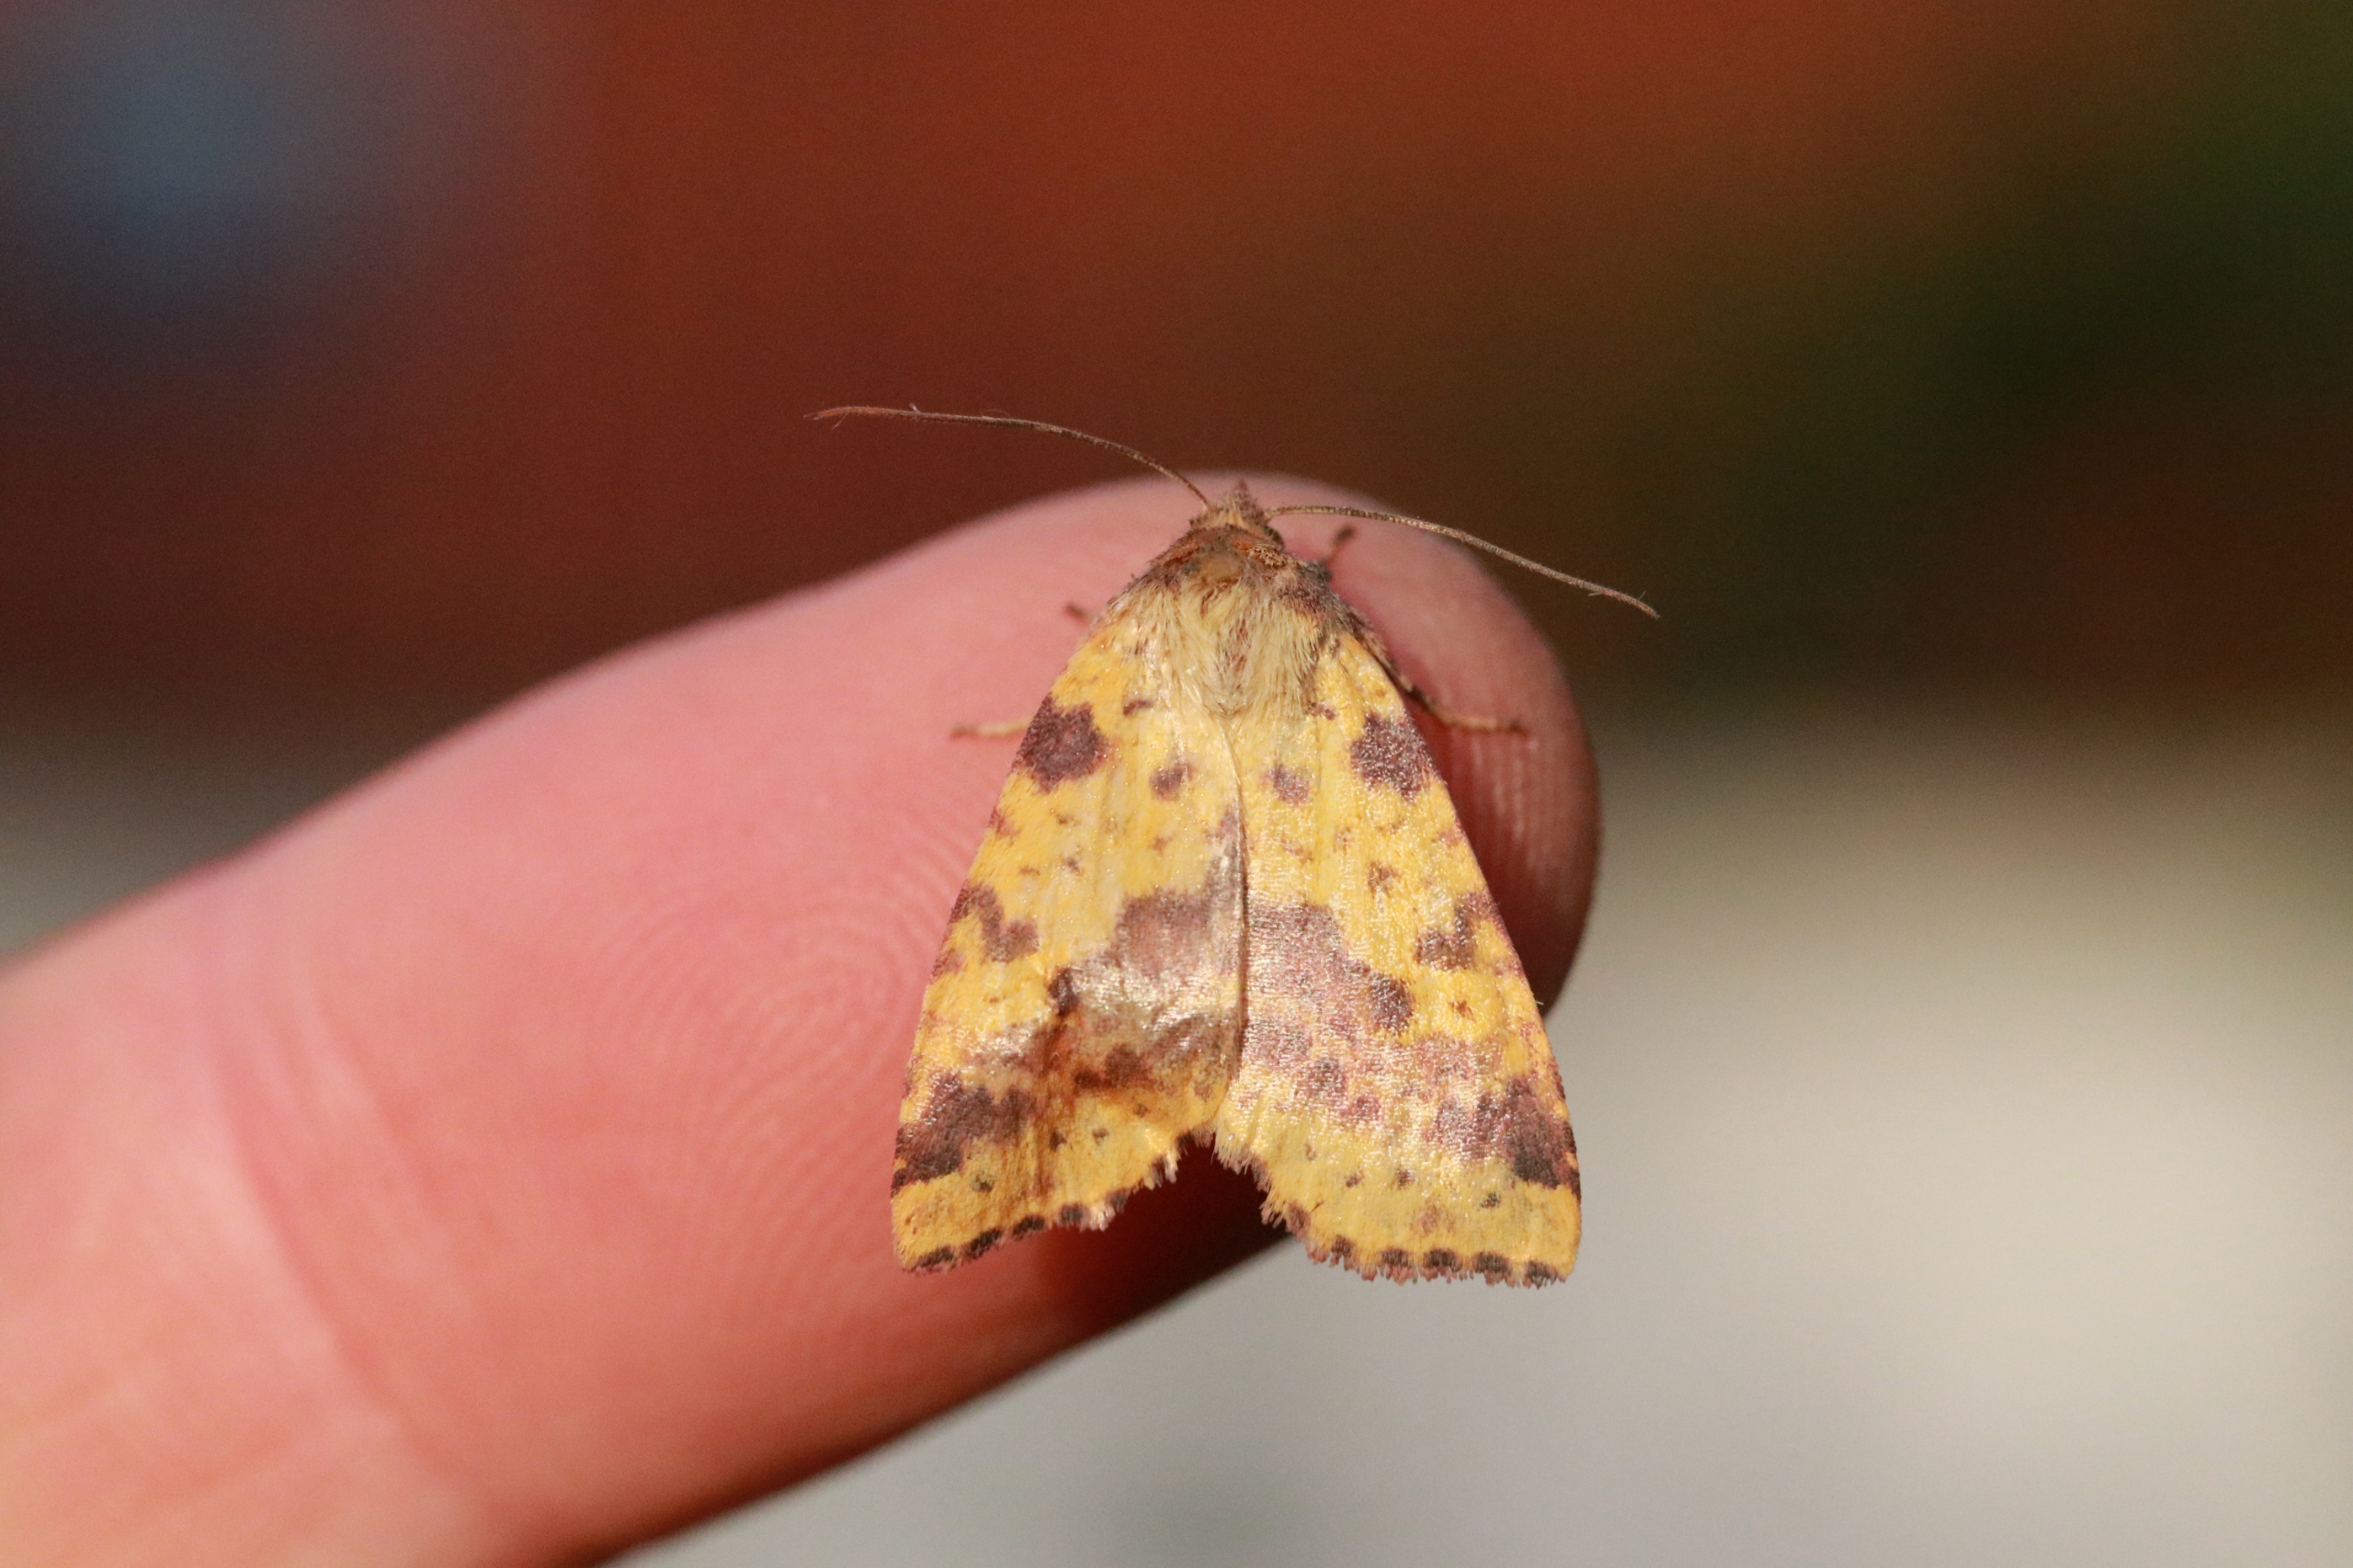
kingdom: Animalia
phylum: Arthropoda
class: Insecta
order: Lepidoptera
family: Noctuidae
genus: Xanthia
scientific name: Xanthia togata
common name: Toga-septemberugle
